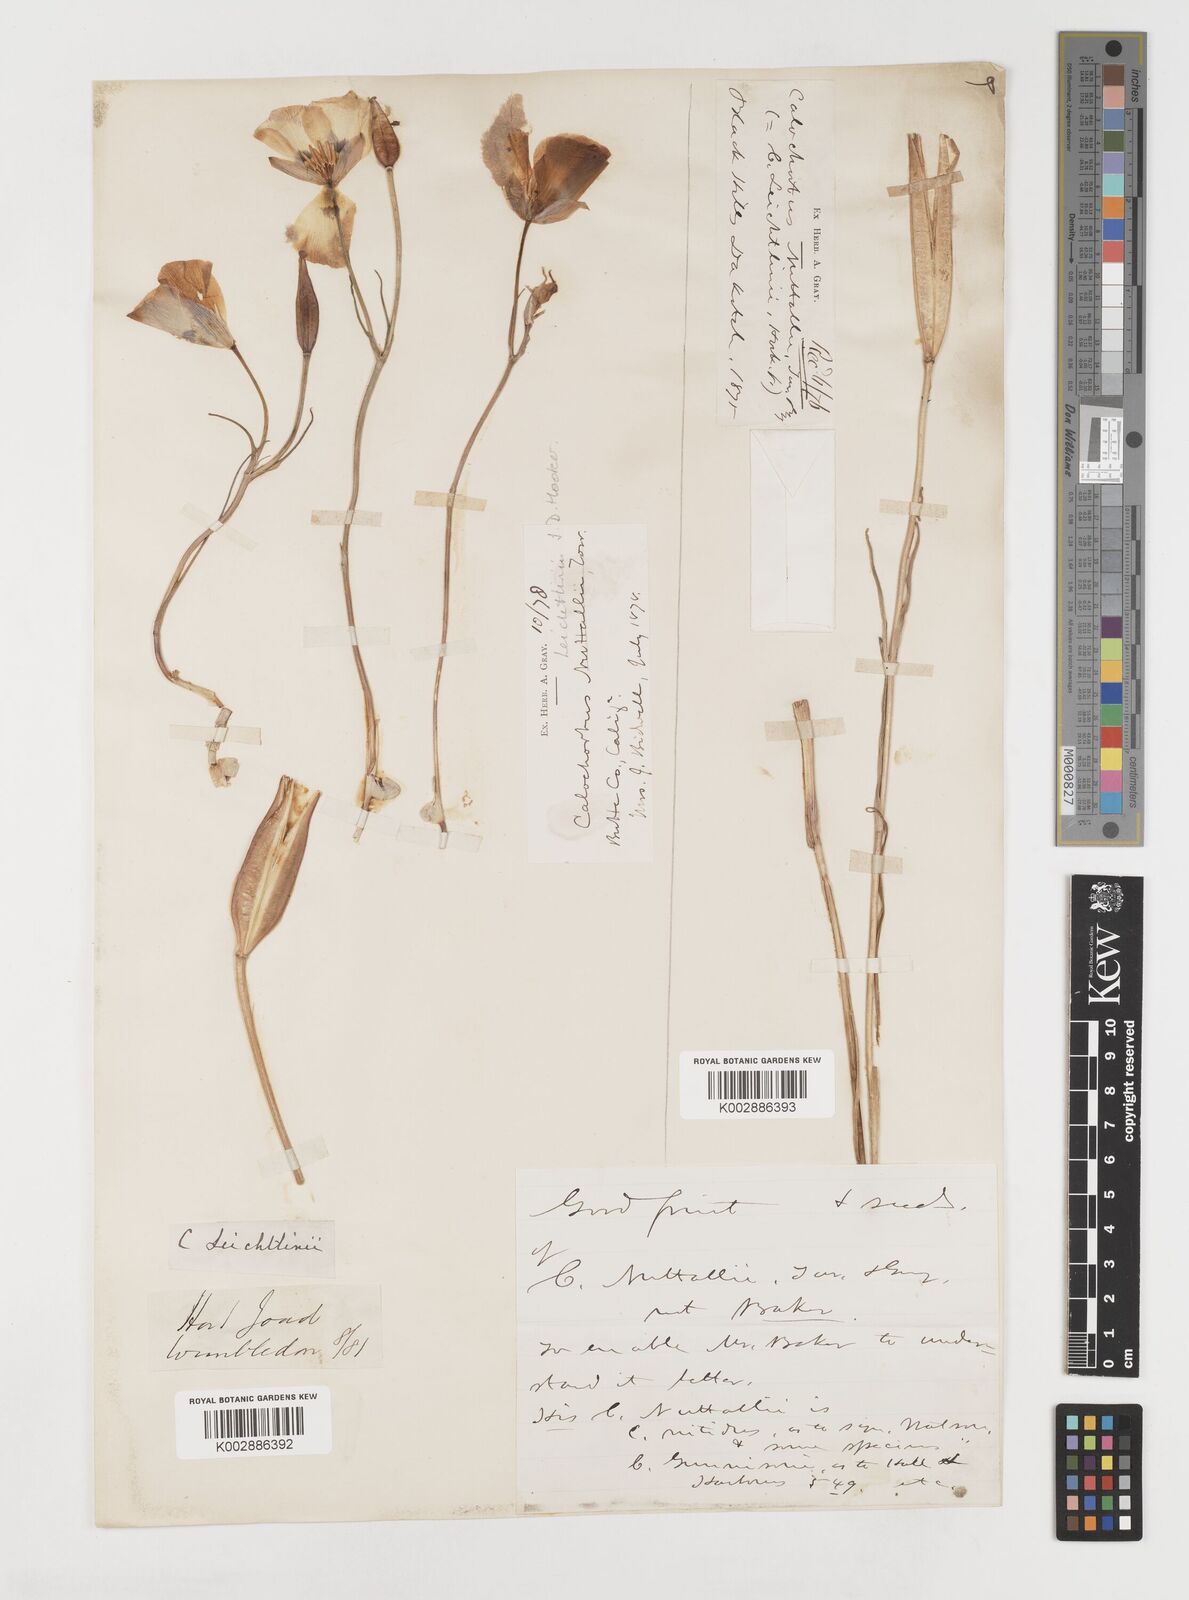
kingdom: Plantae
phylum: Tracheophyta
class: Liliopsida
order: Liliales
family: Liliaceae
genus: Calochortus
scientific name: Calochortus leichtlinii
